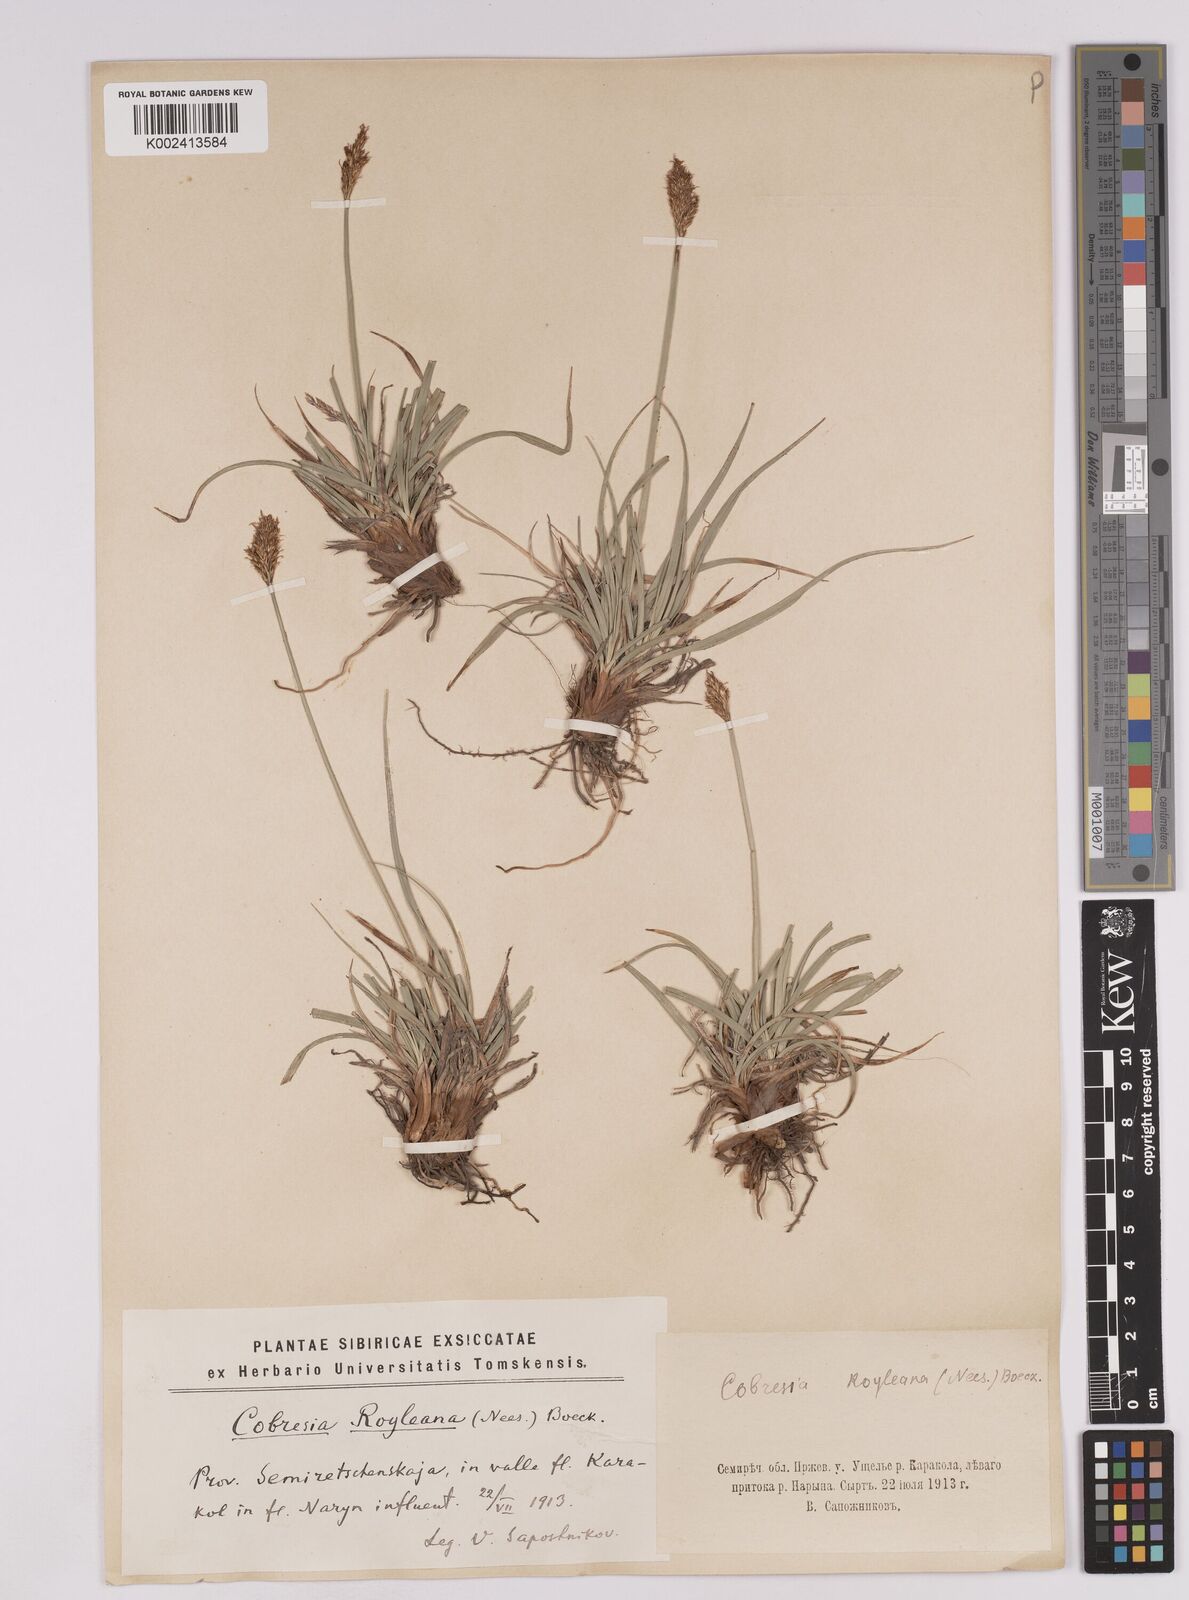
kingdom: Plantae
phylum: Tracheophyta
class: Liliopsida
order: Poales
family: Cyperaceae
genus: Carex
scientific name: Carex kokanica
